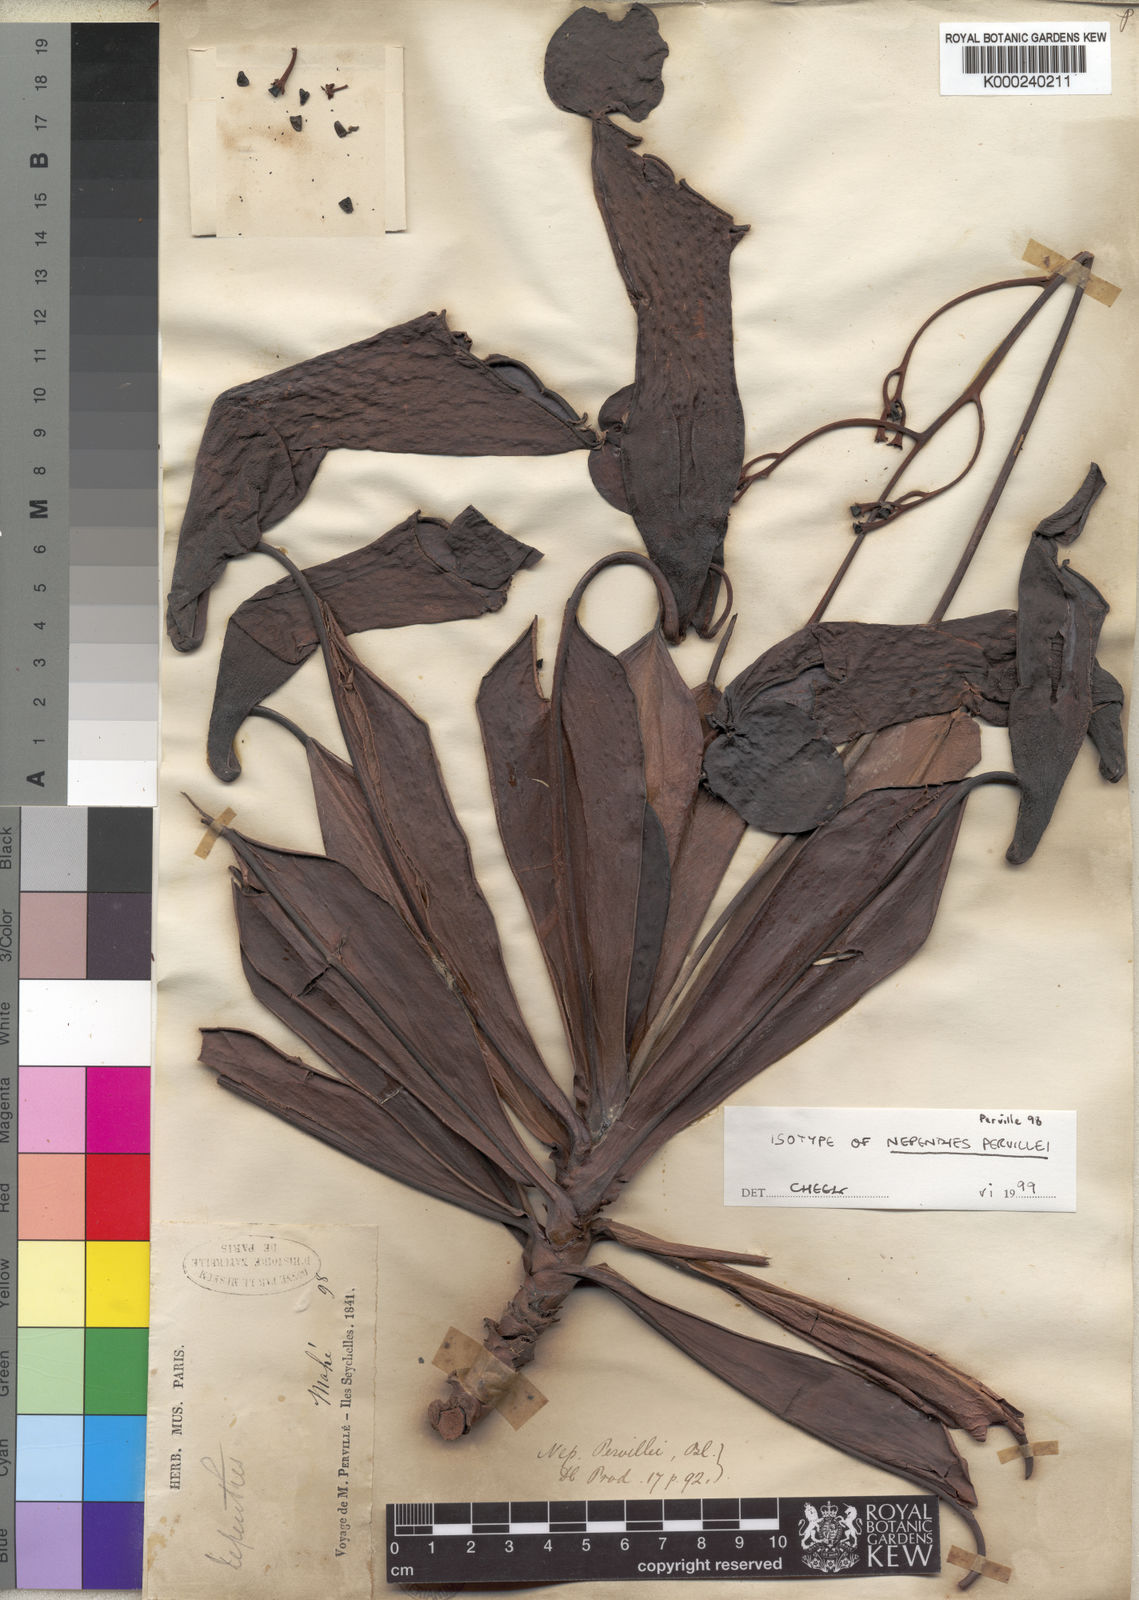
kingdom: Plantae
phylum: Tracheophyta
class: Magnoliopsida
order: Caryophyllales
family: Nepenthaceae
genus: Nepenthes
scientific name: Nepenthes pervillei
